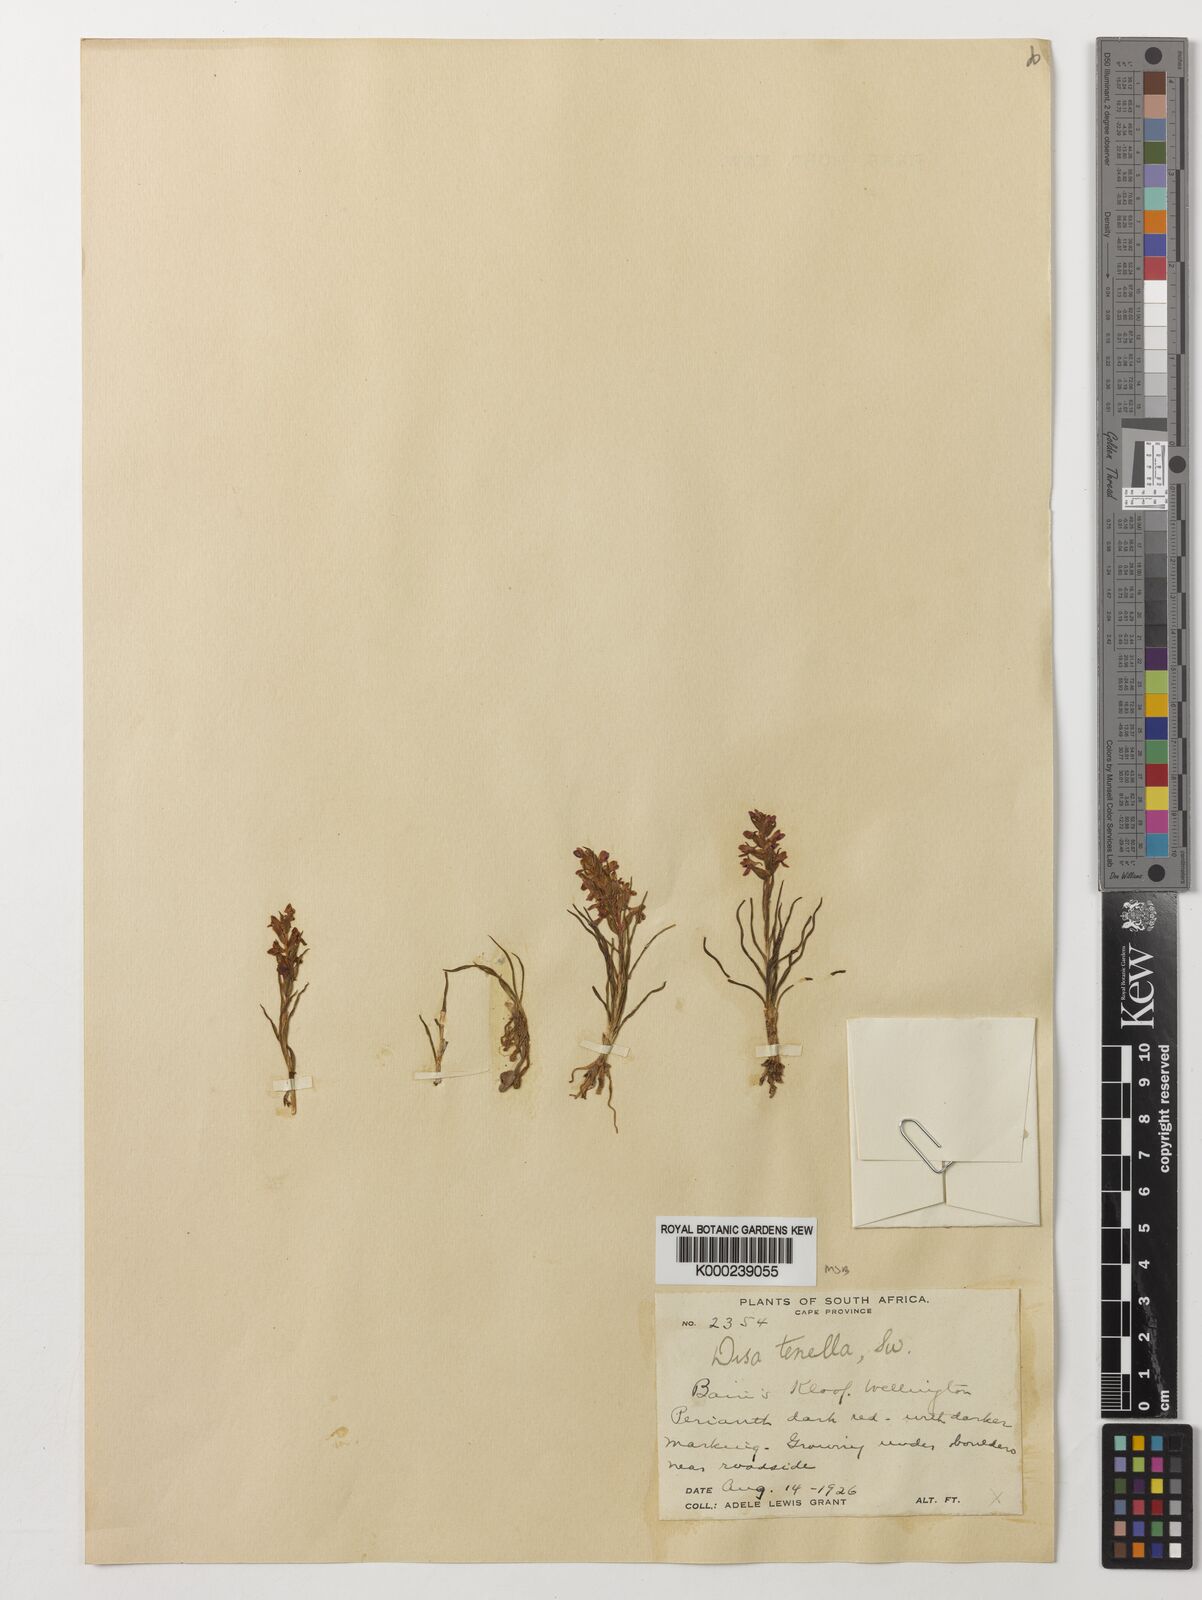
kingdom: Plantae
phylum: Tracheophyta
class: Liliopsida
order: Asparagales
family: Orchidaceae
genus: Disa
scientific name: Disa tenella
